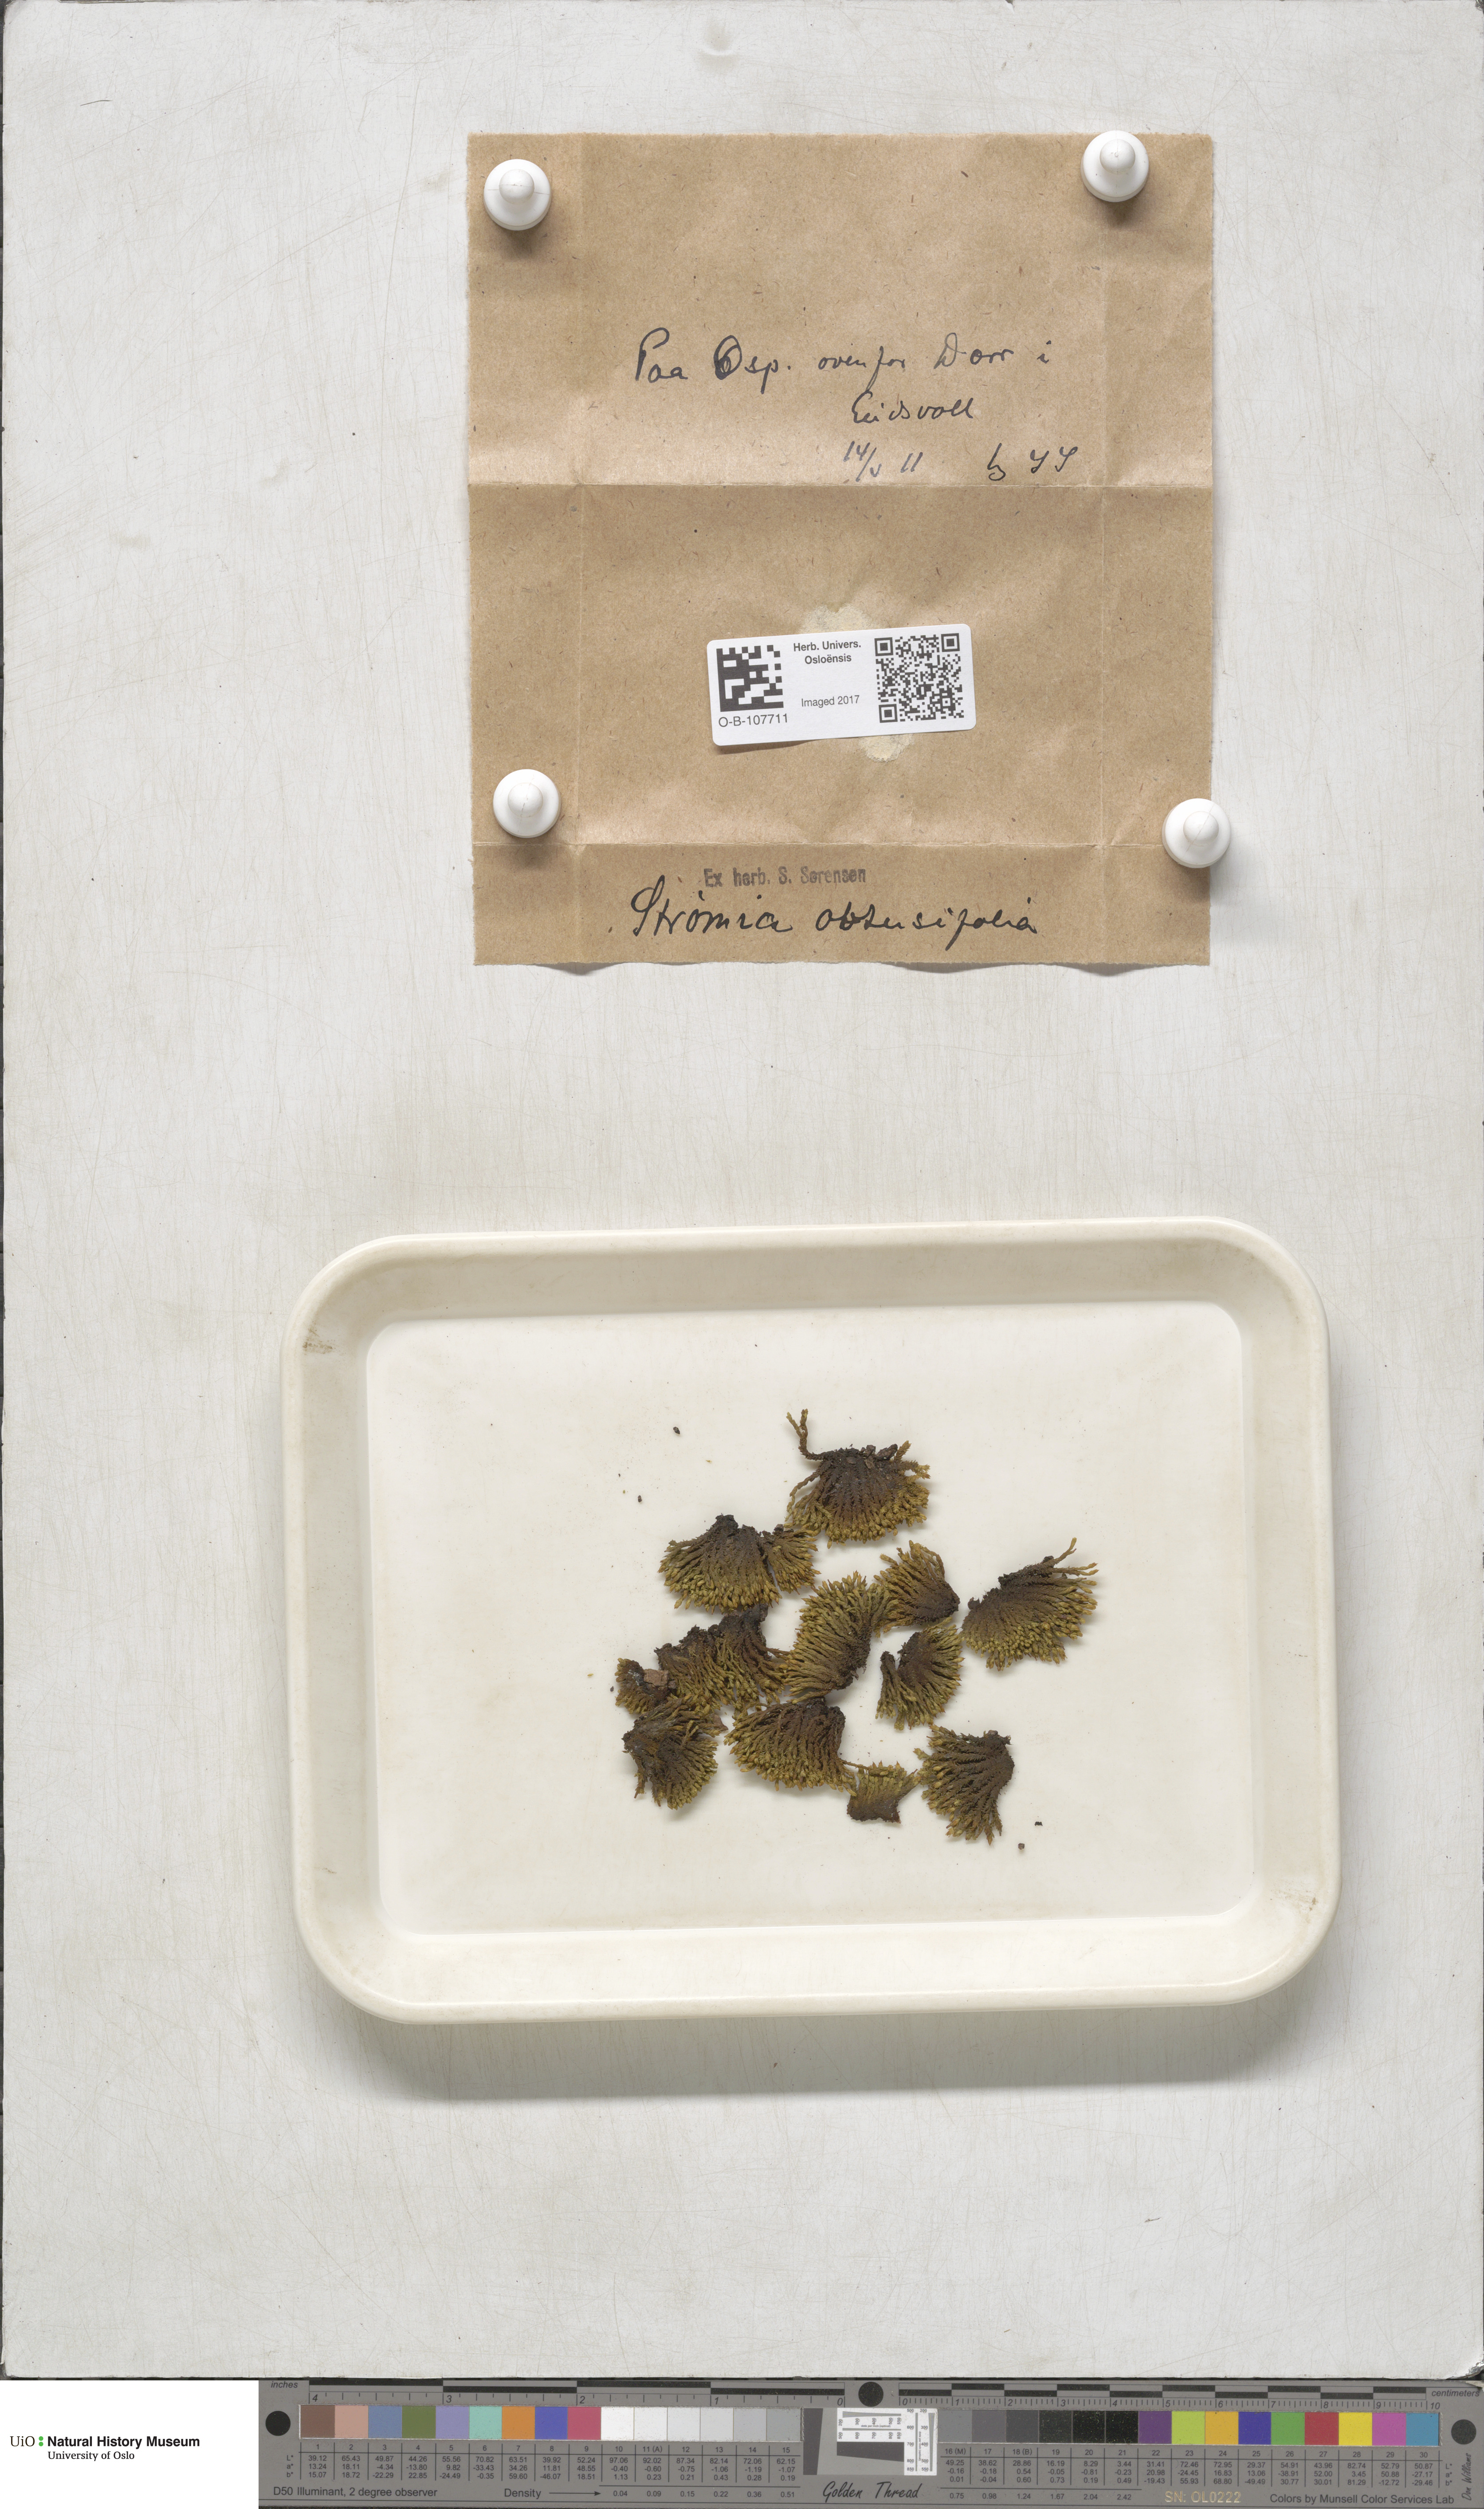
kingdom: Plantae
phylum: Bryophyta
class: Bryopsida
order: Orthotrichales
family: Orthotrichaceae
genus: Nyholmiella
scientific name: Nyholmiella obtusifolia
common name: Blunt-leaved bristle-moss
